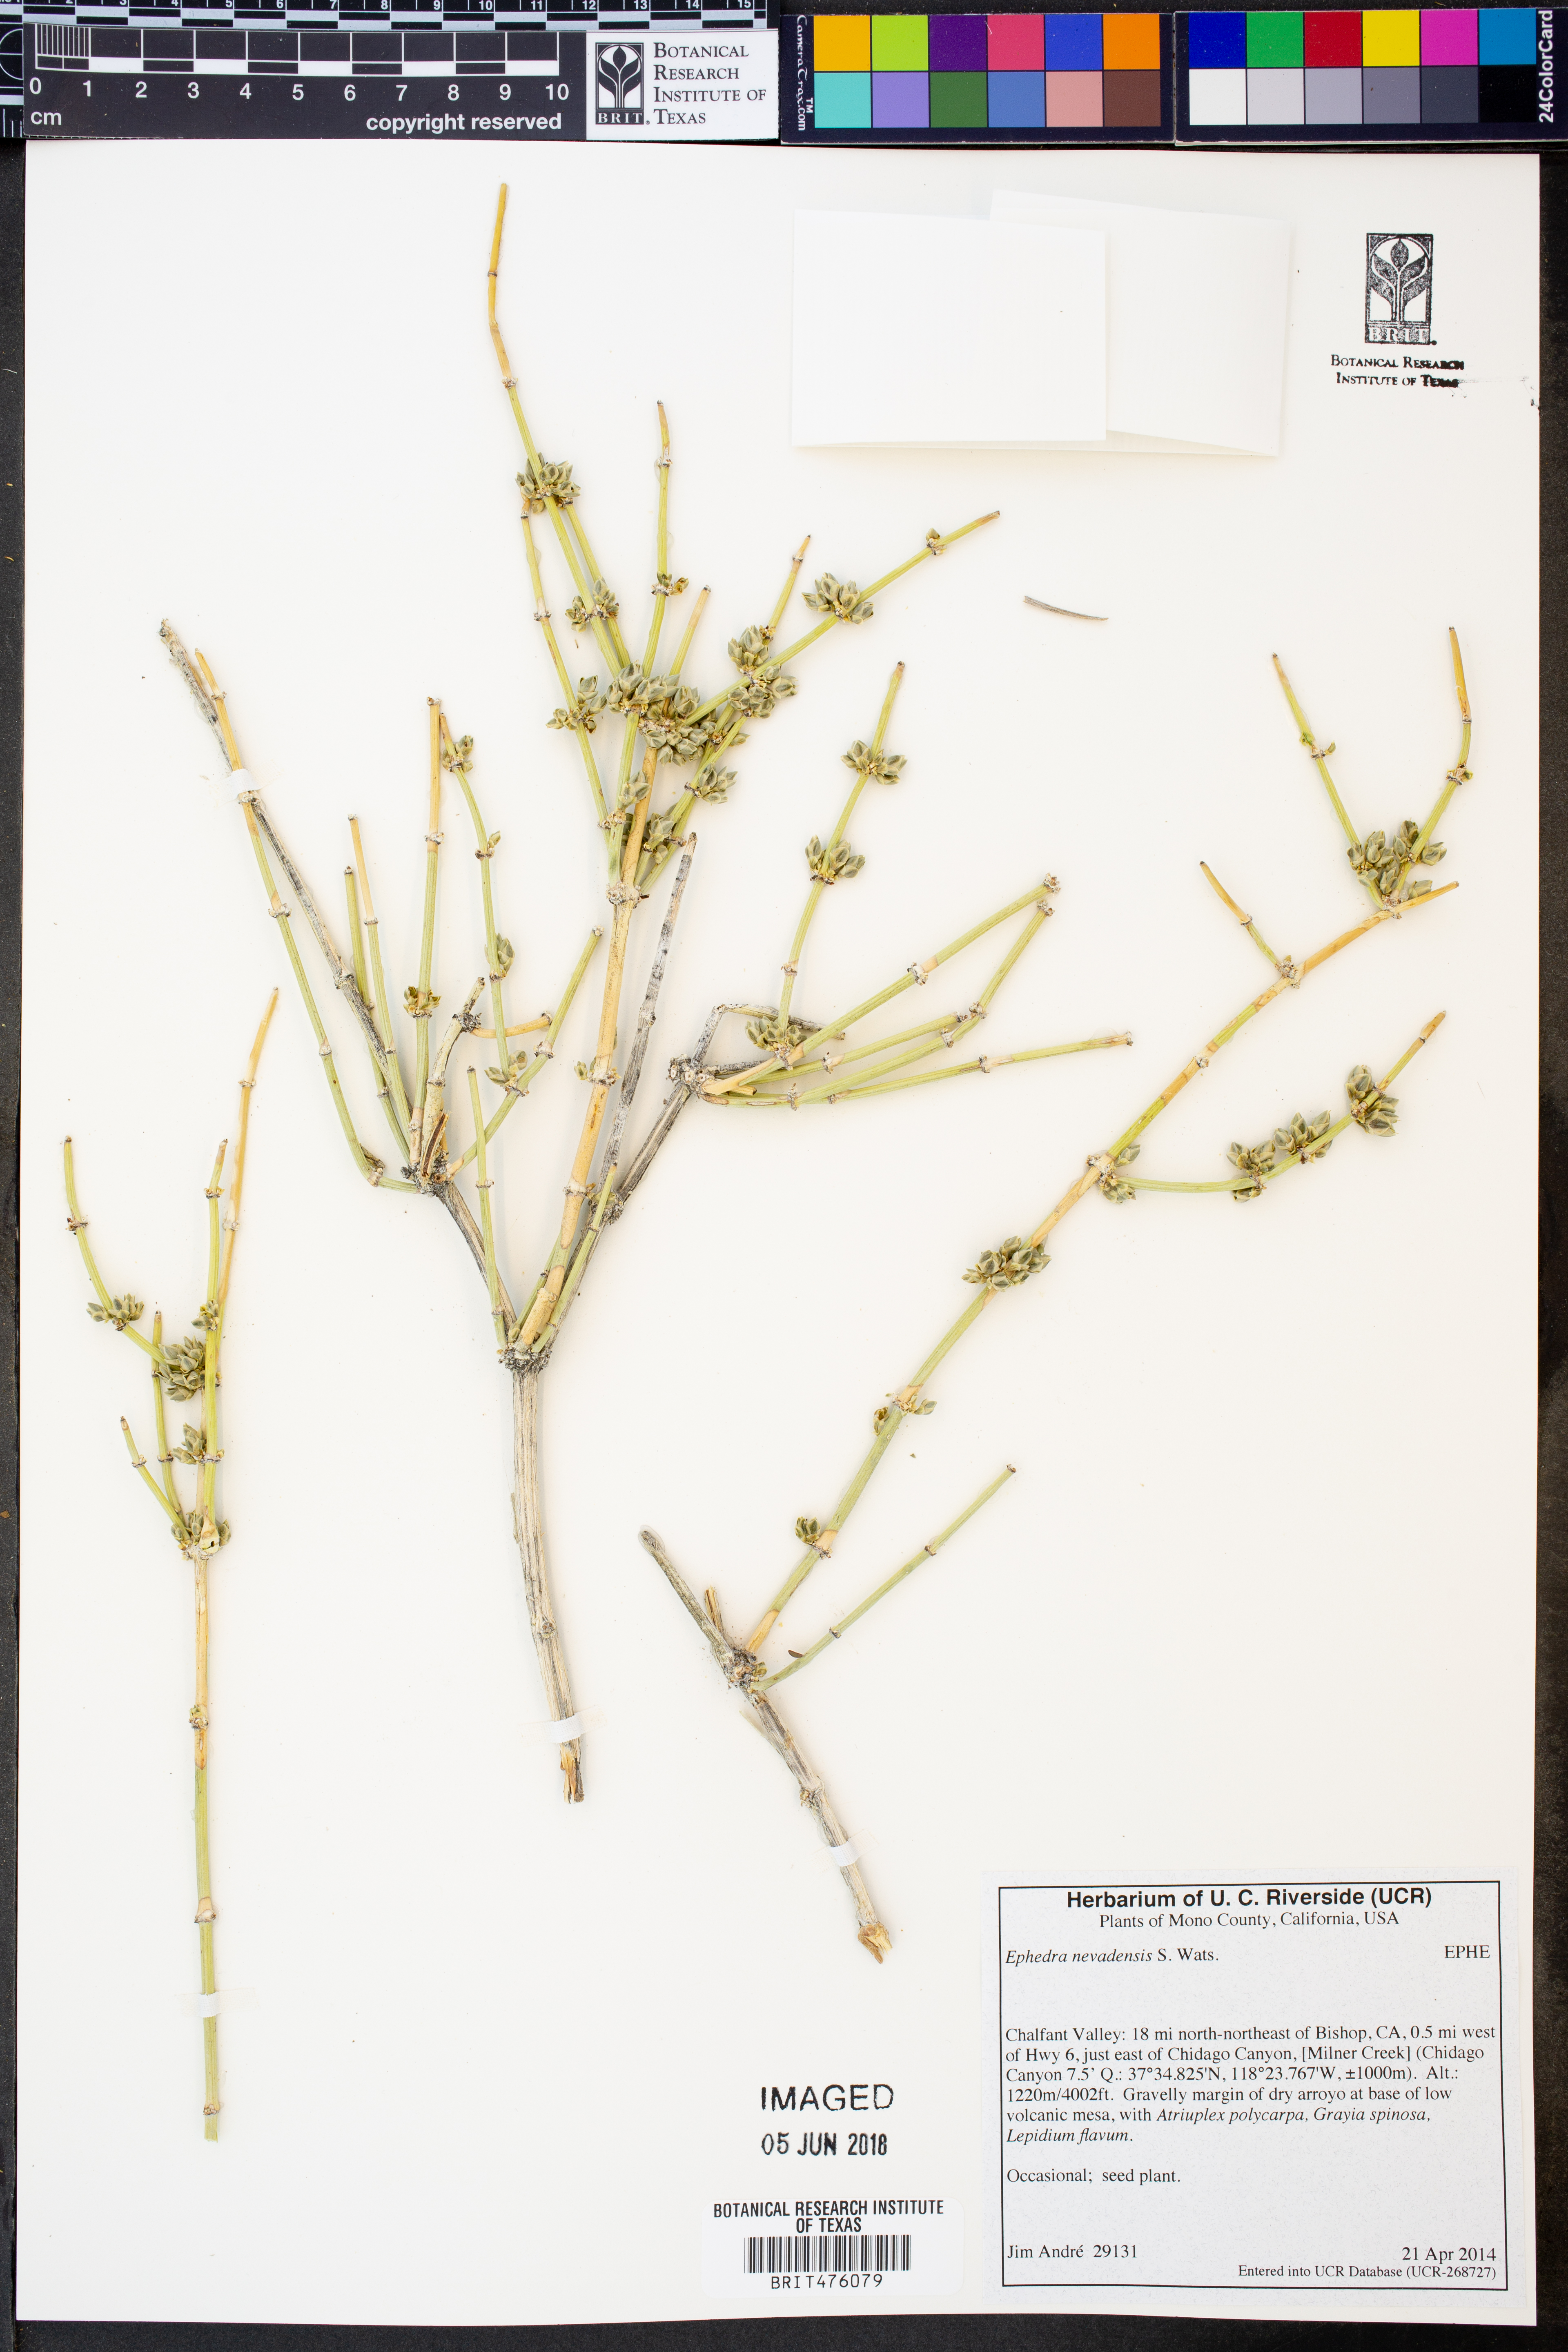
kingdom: Plantae
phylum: Tracheophyta
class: Gnetopsida
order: Ephedrales
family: Ephedraceae
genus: Ephedra
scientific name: Ephedra nevadensis
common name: Gray ephedra
